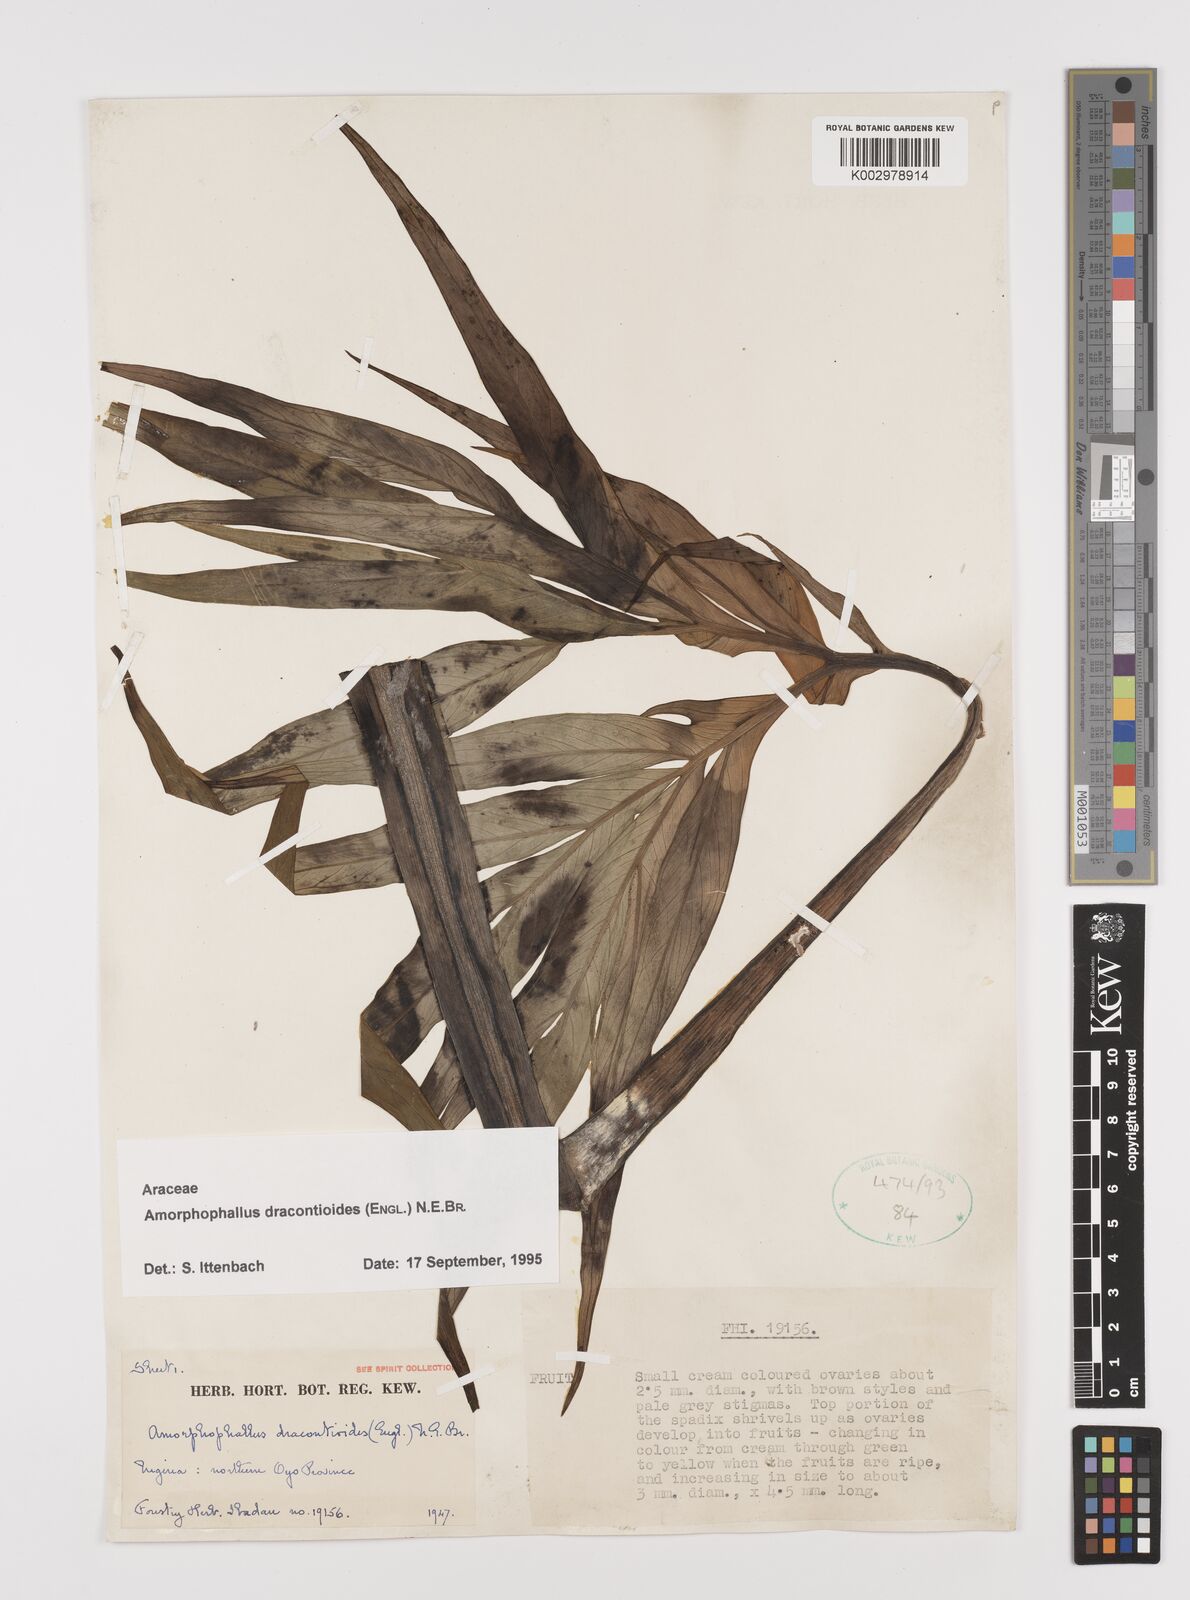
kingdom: Plantae
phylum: Tracheophyta
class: Liliopsida
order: Alismatales
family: Araceae
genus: Amorphophallus
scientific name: Amorphophallus dracontioides
